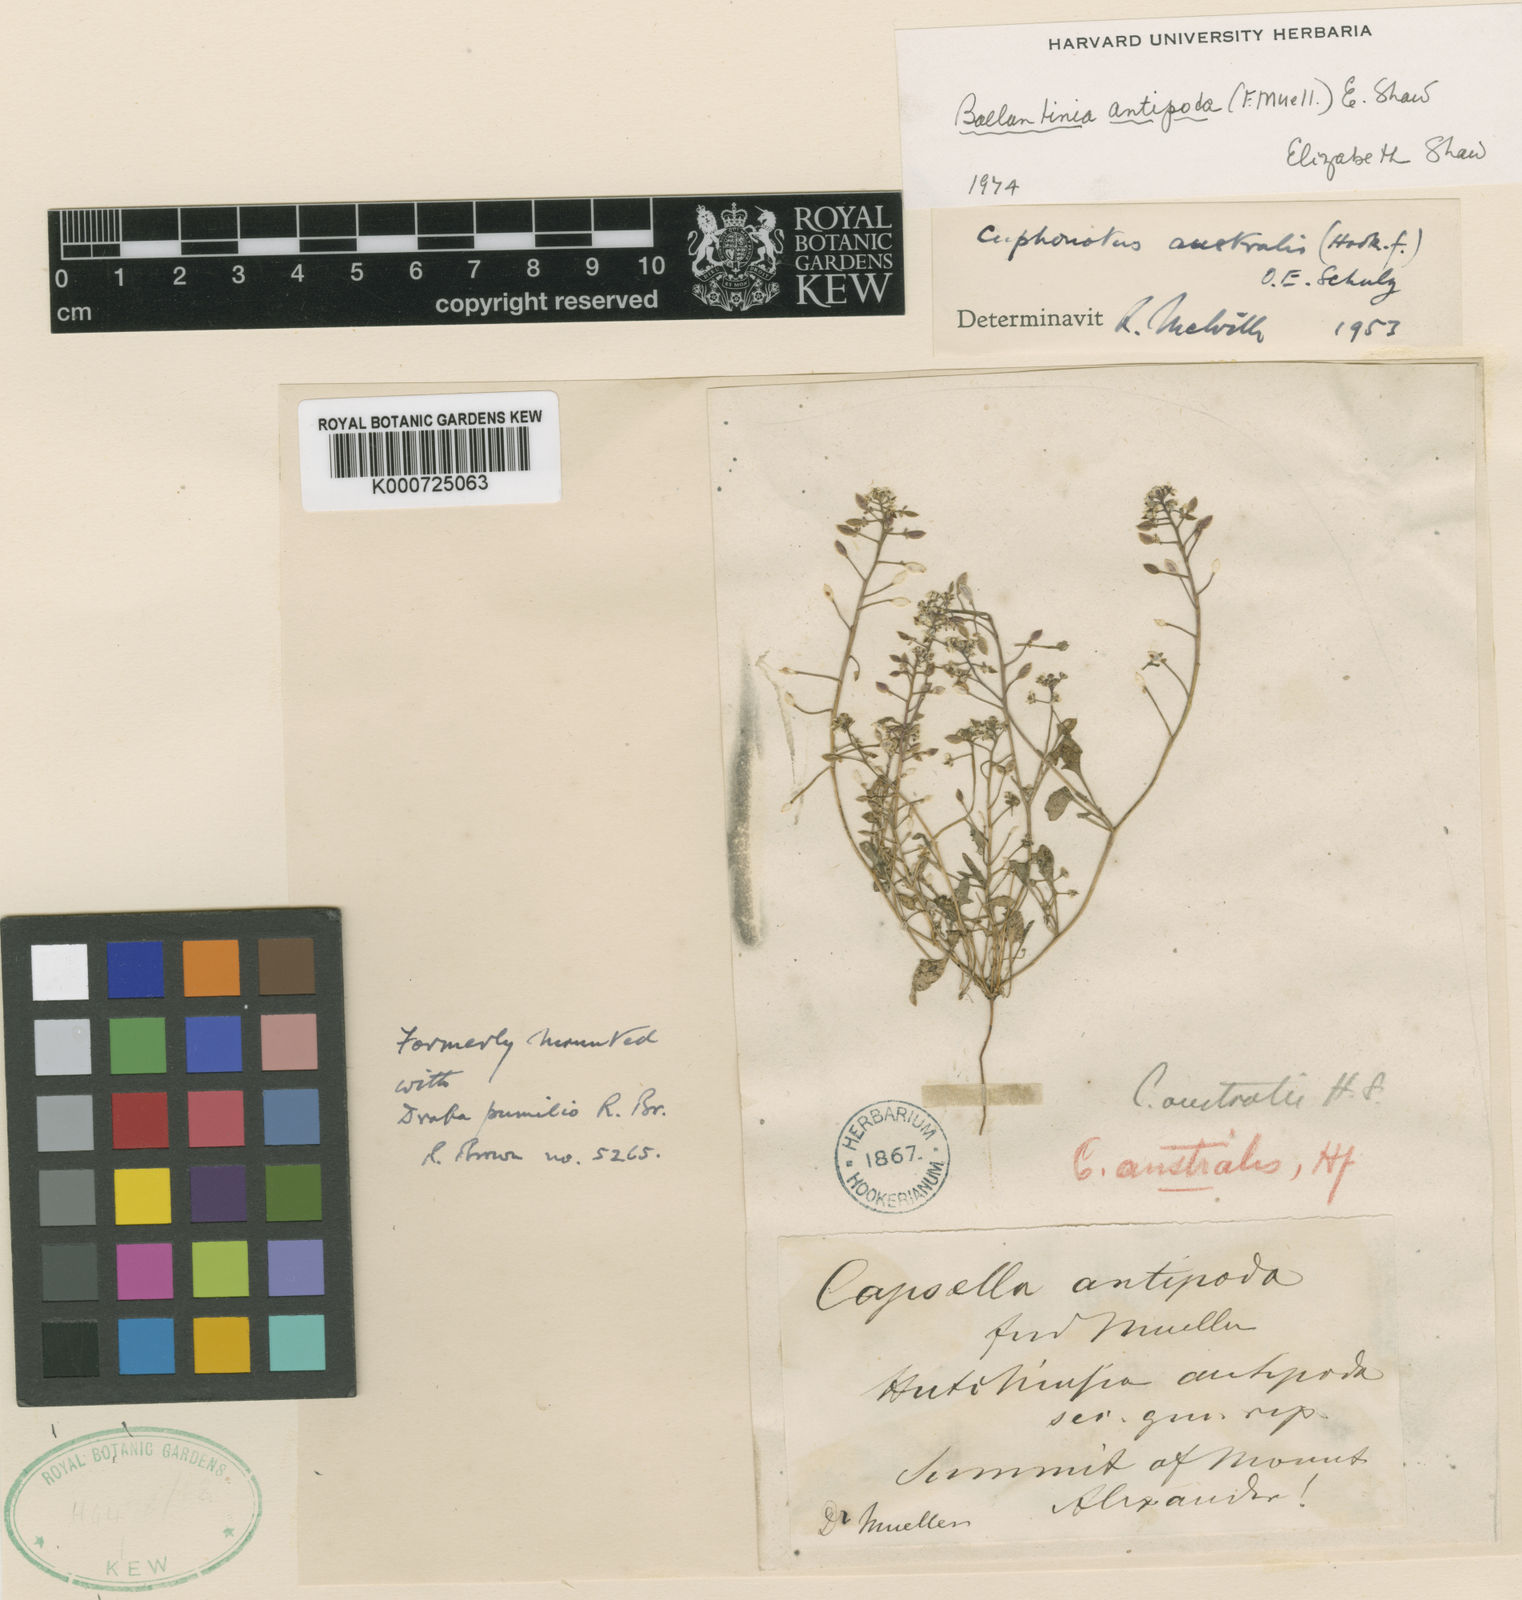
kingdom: Plantae
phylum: Tracheophyta
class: Magnoliopsida
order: Brassicales
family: Brassicaceae
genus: Ballantinia
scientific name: Ballantinia antipoda
